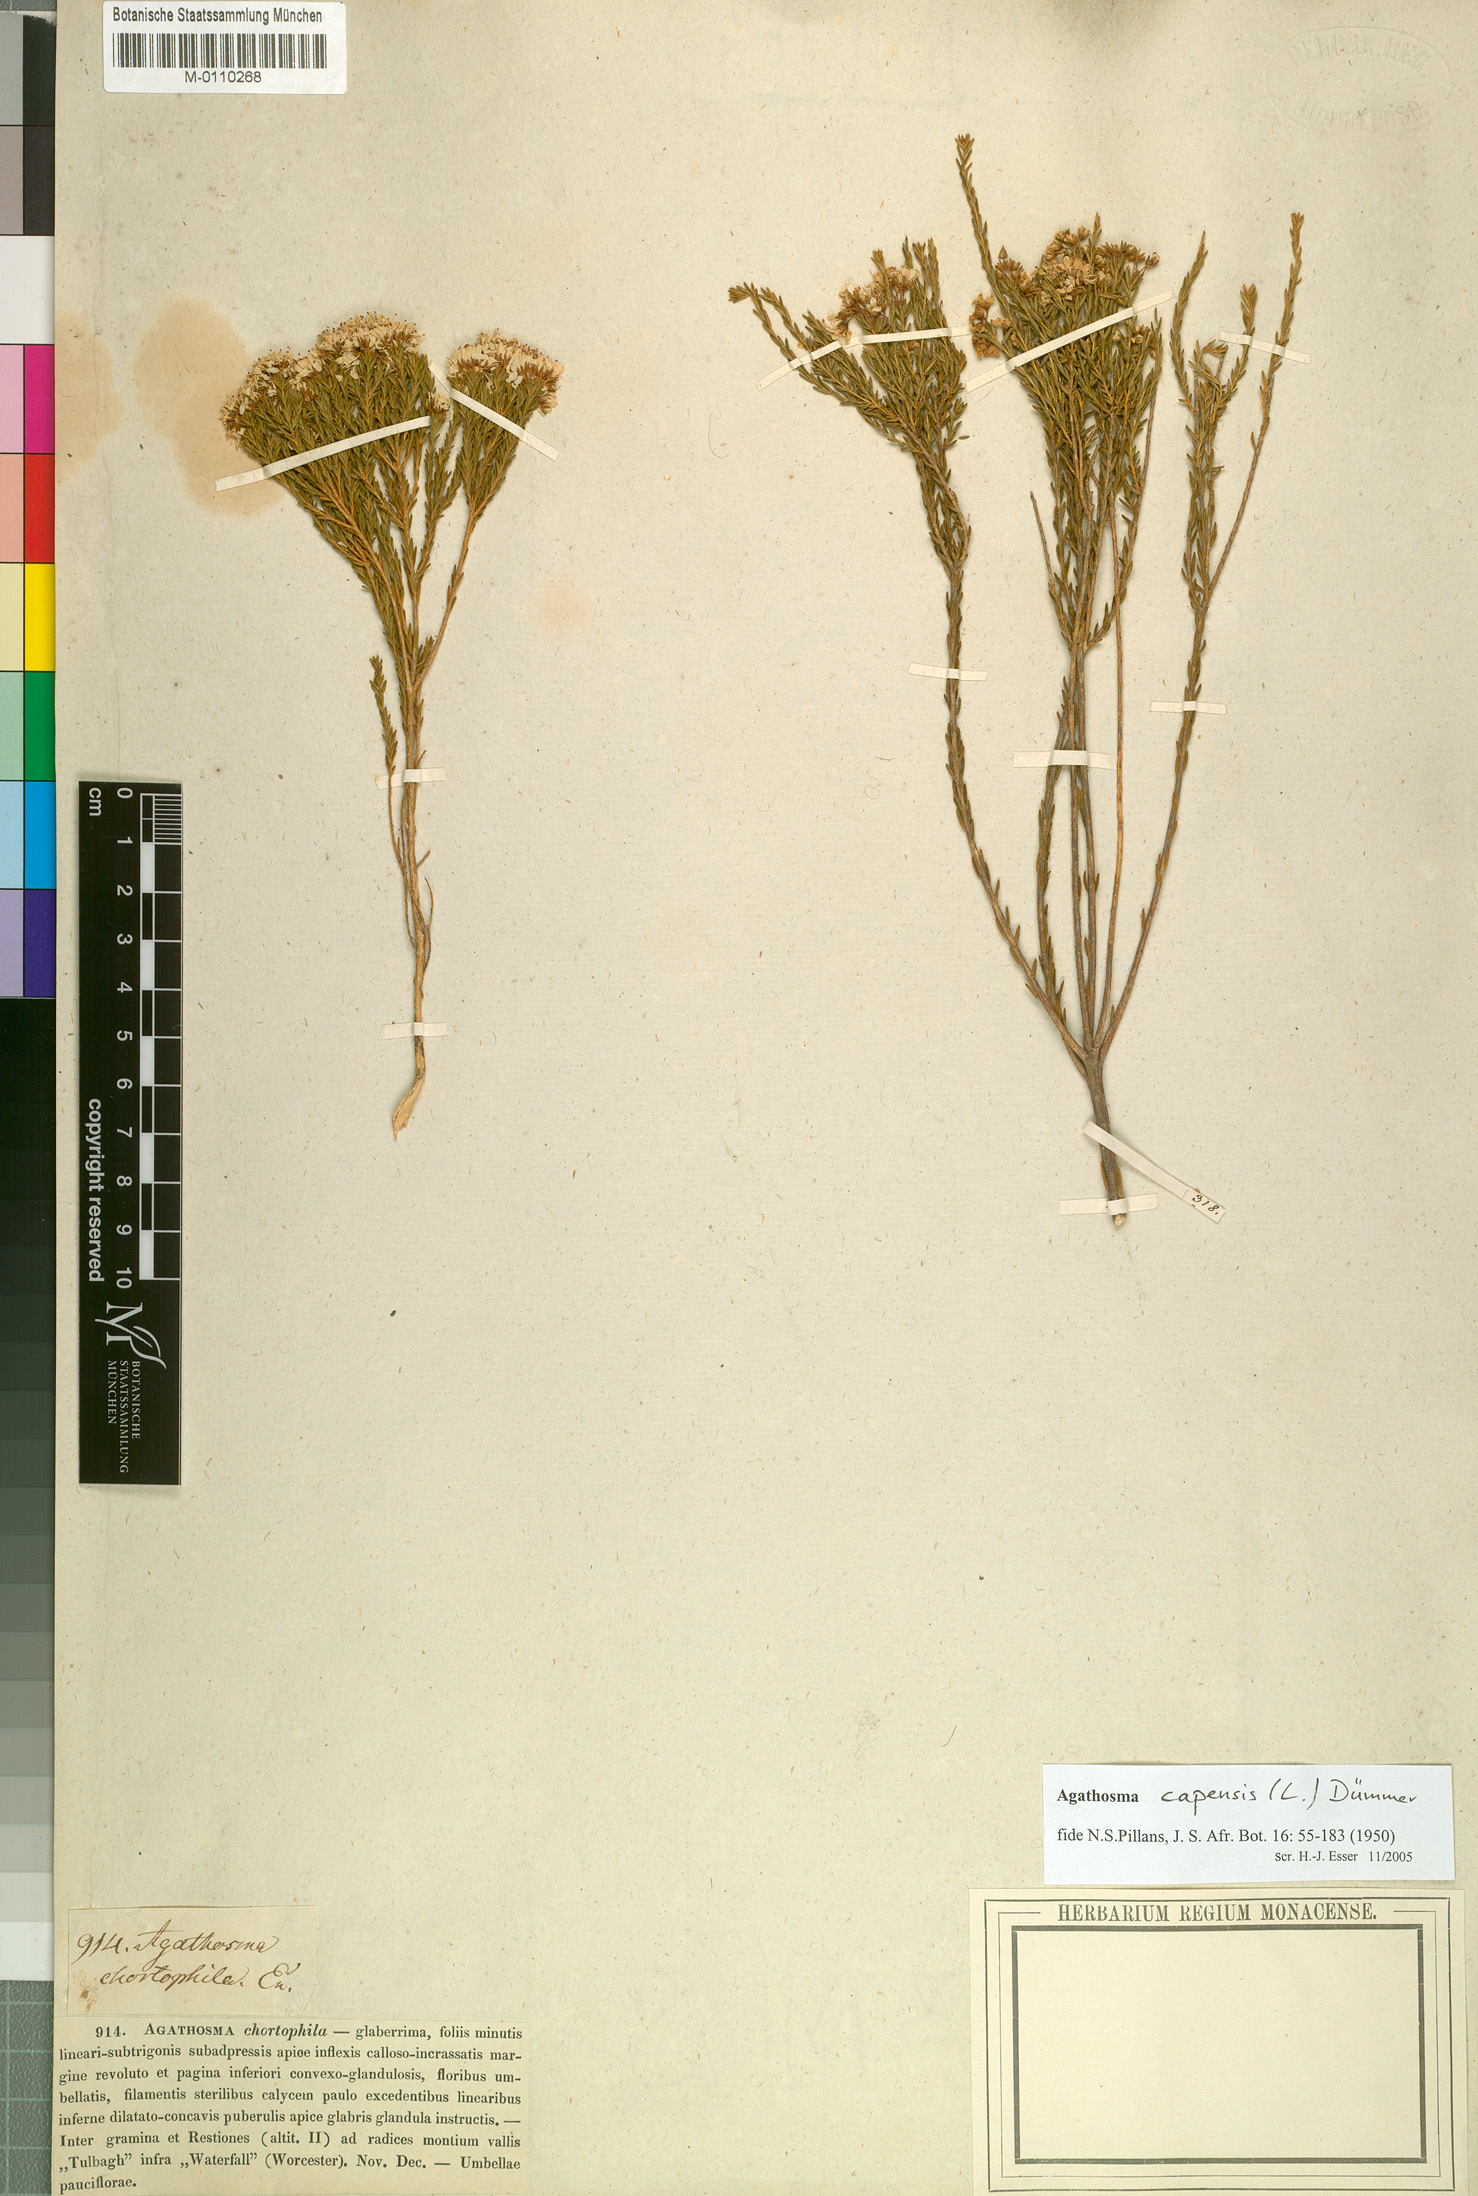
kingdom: Plantae
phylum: Tracheophyta
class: Magnoliopsida
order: Sapindales
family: Rutaceae
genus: Agathosma
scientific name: Agathosma capensis
